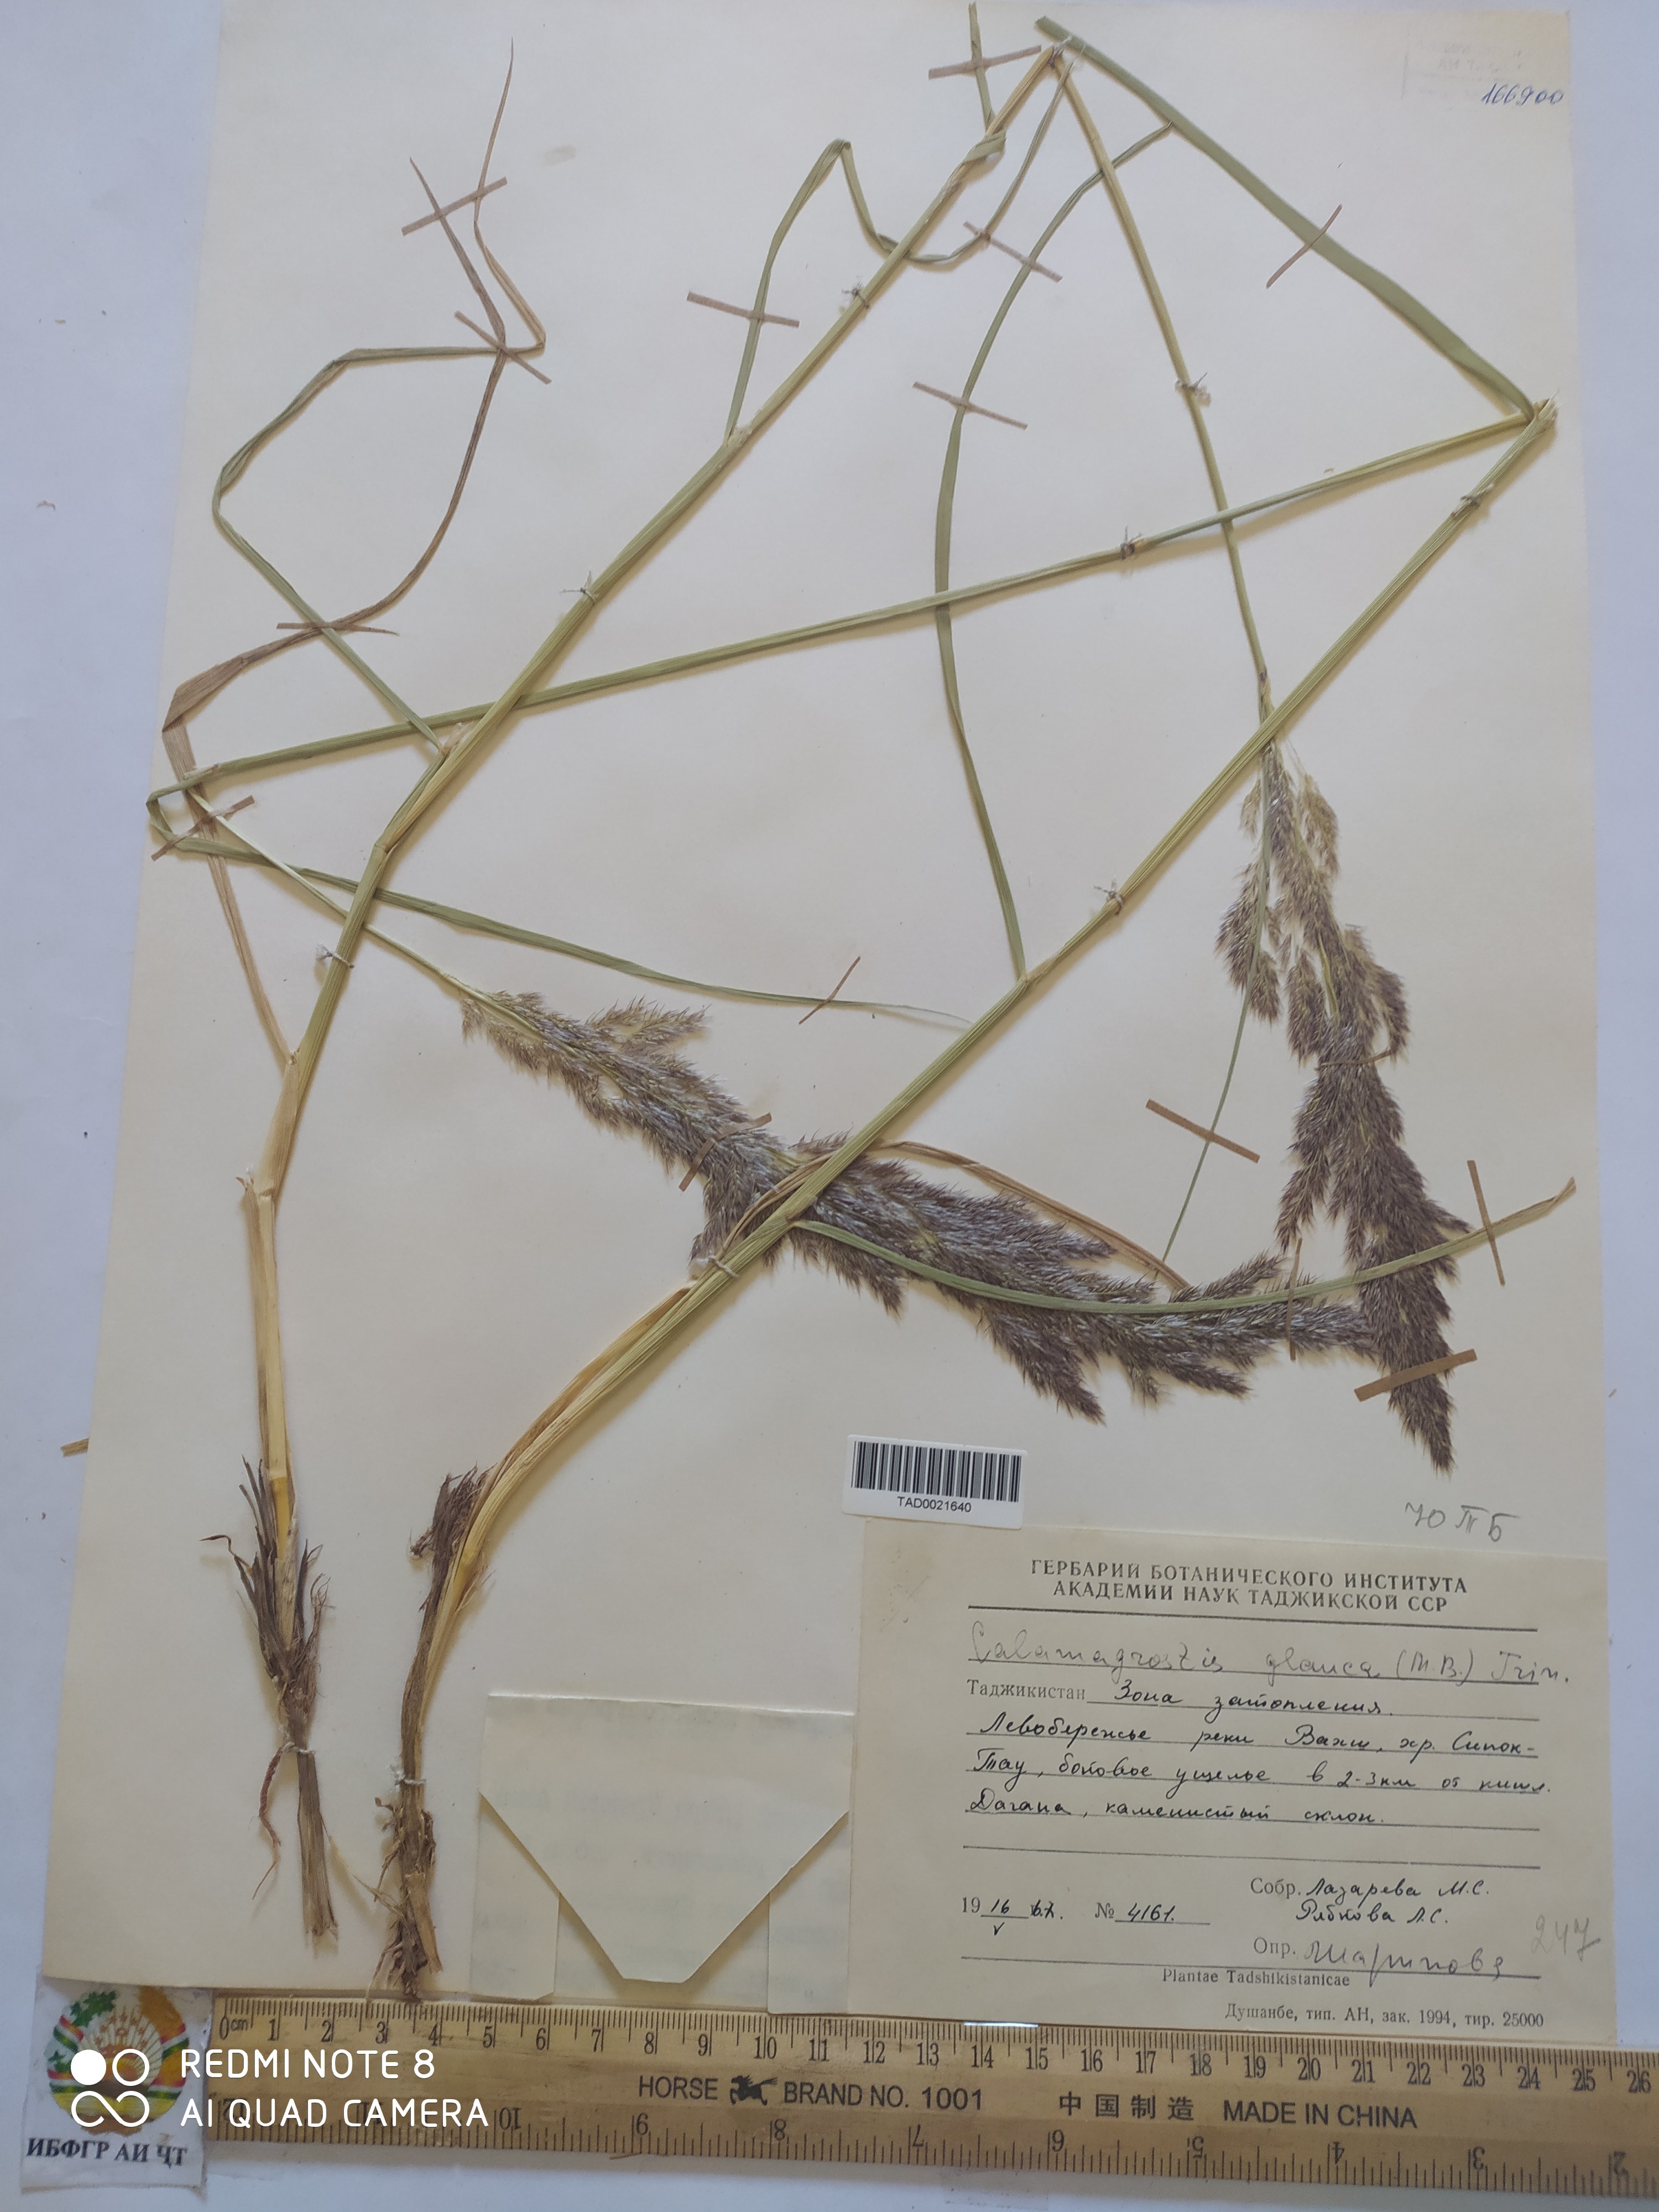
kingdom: Plantae
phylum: Tracheophyta
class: Liliopsida
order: Poales
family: Poaceae
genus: Calamagrostis
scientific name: Calamagrostis pseudophragmites
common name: Coastal small-reed
